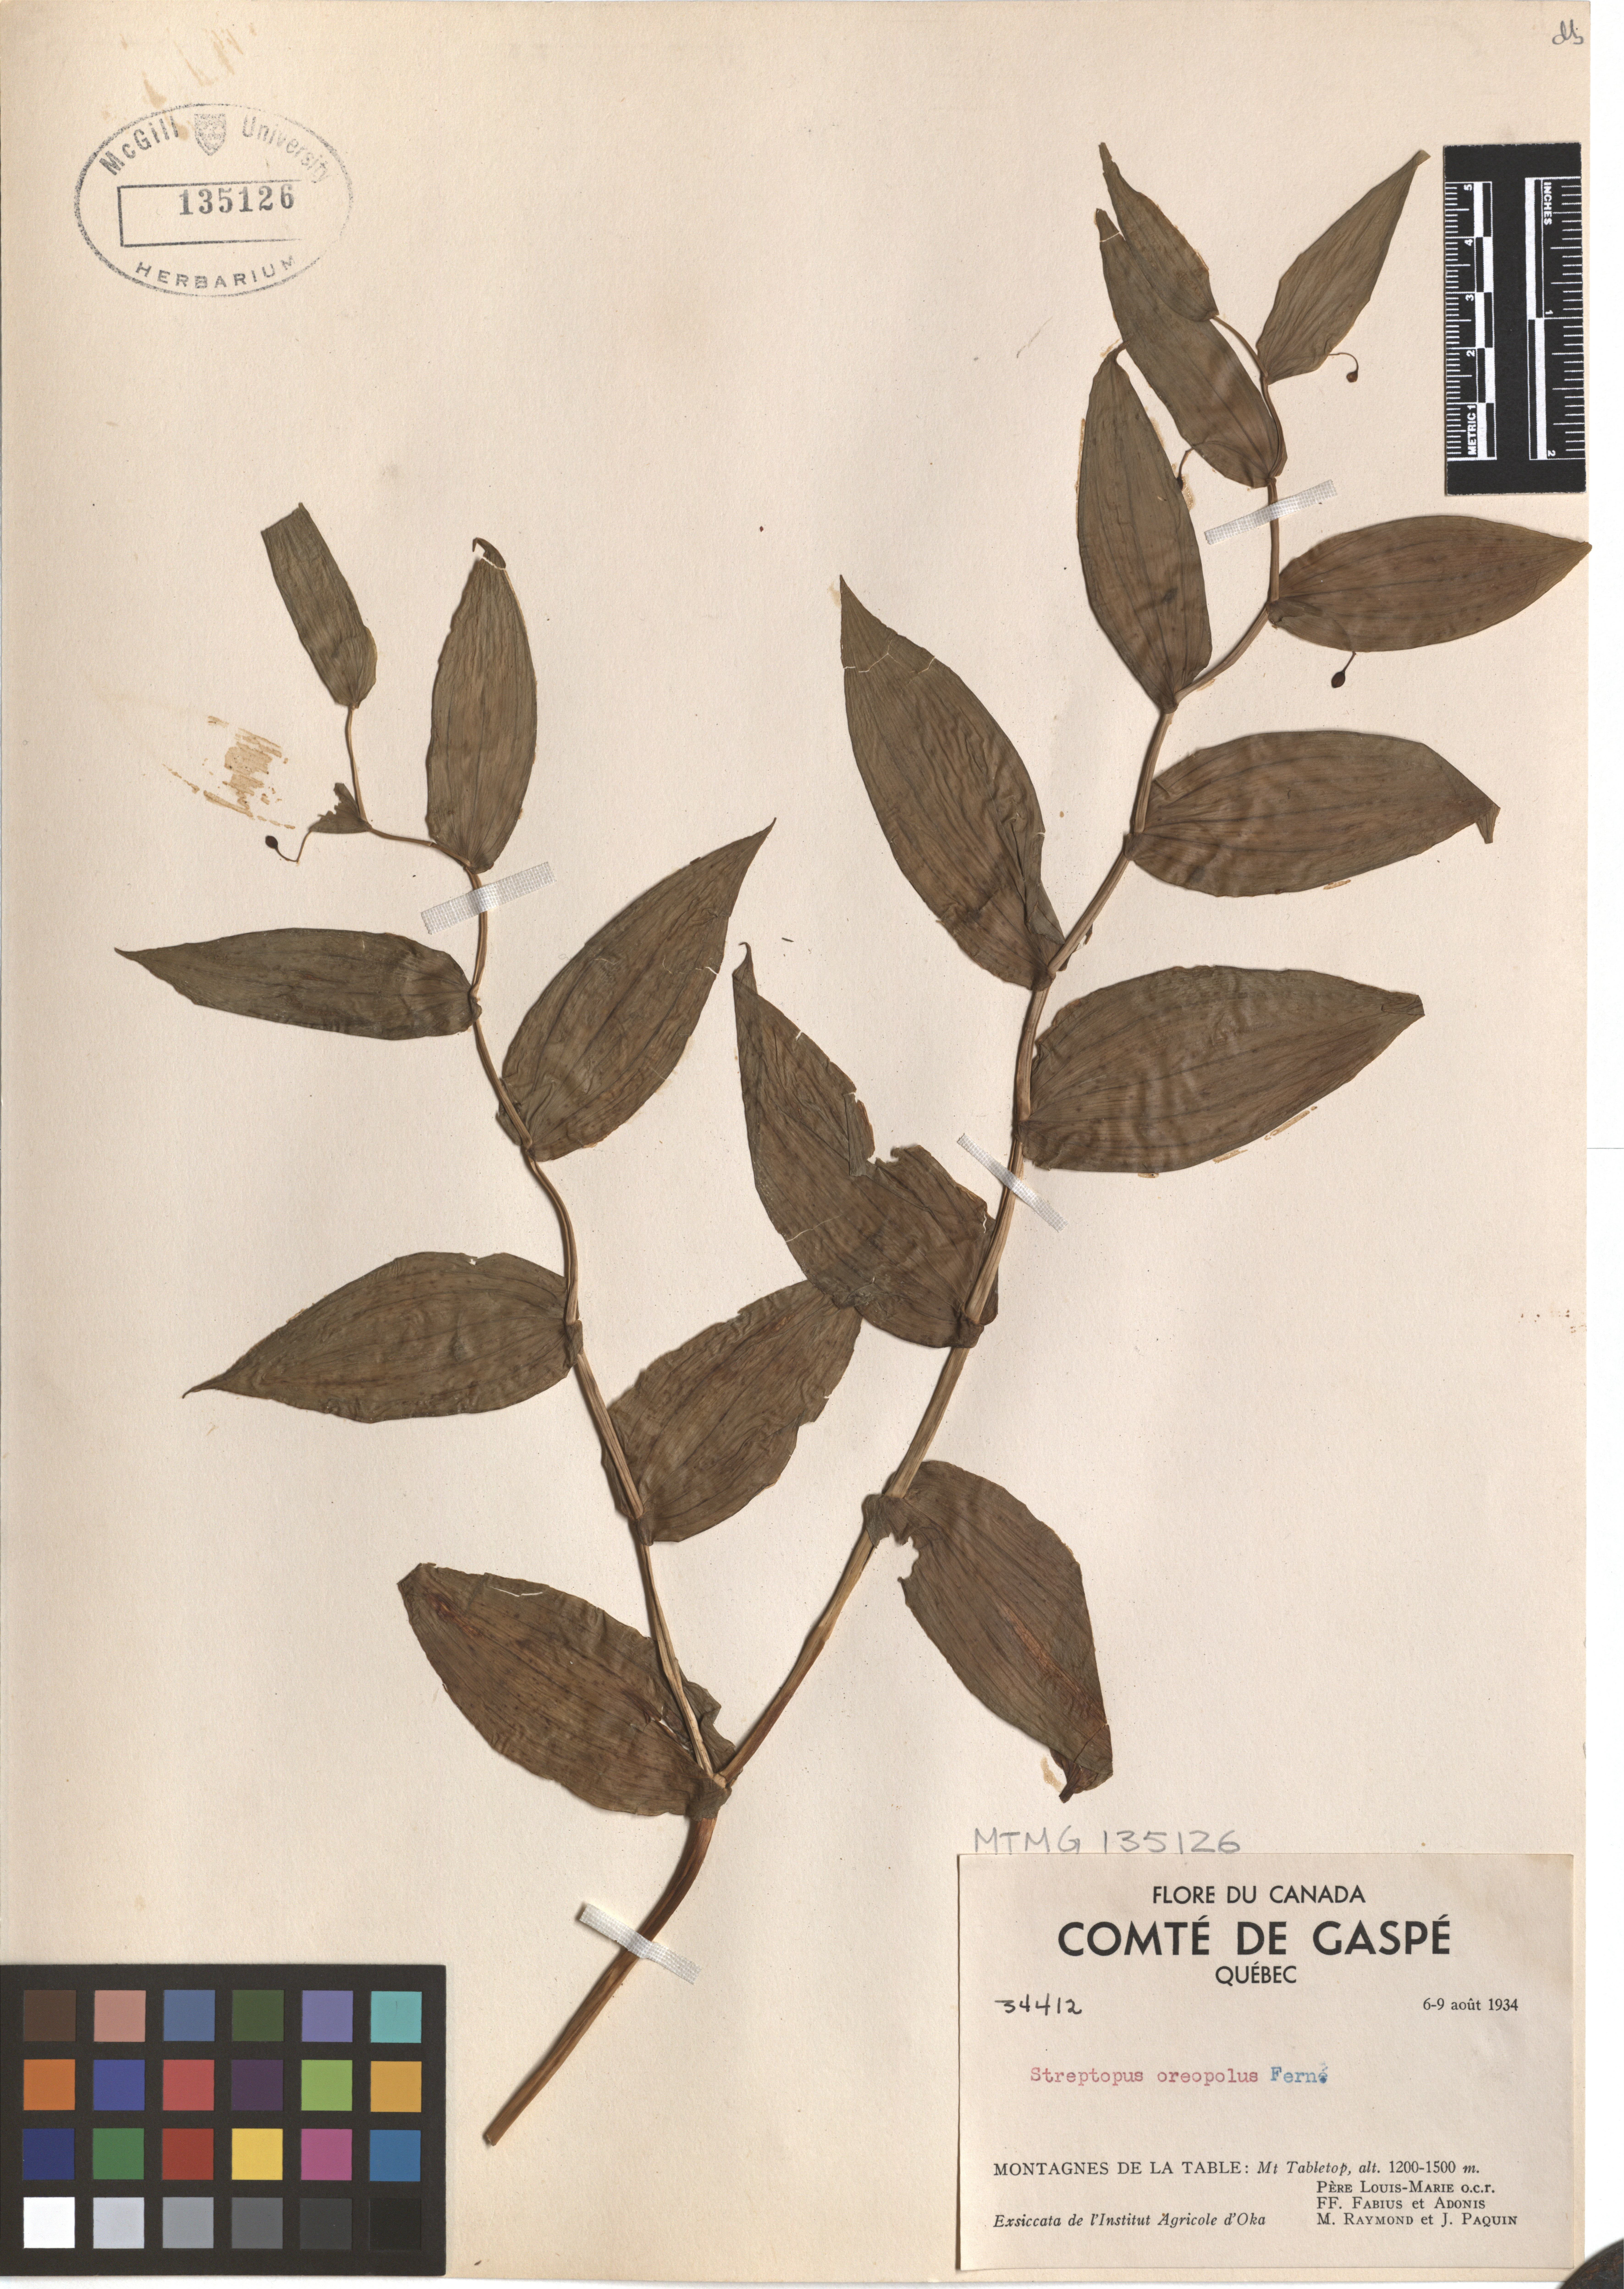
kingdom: Plantae
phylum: Tracheophyta
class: Liliopsida
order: Liliales
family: Liliaceae
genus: Streptopus
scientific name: Streptopus oreopolus
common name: Hybrid twisted-stalk
